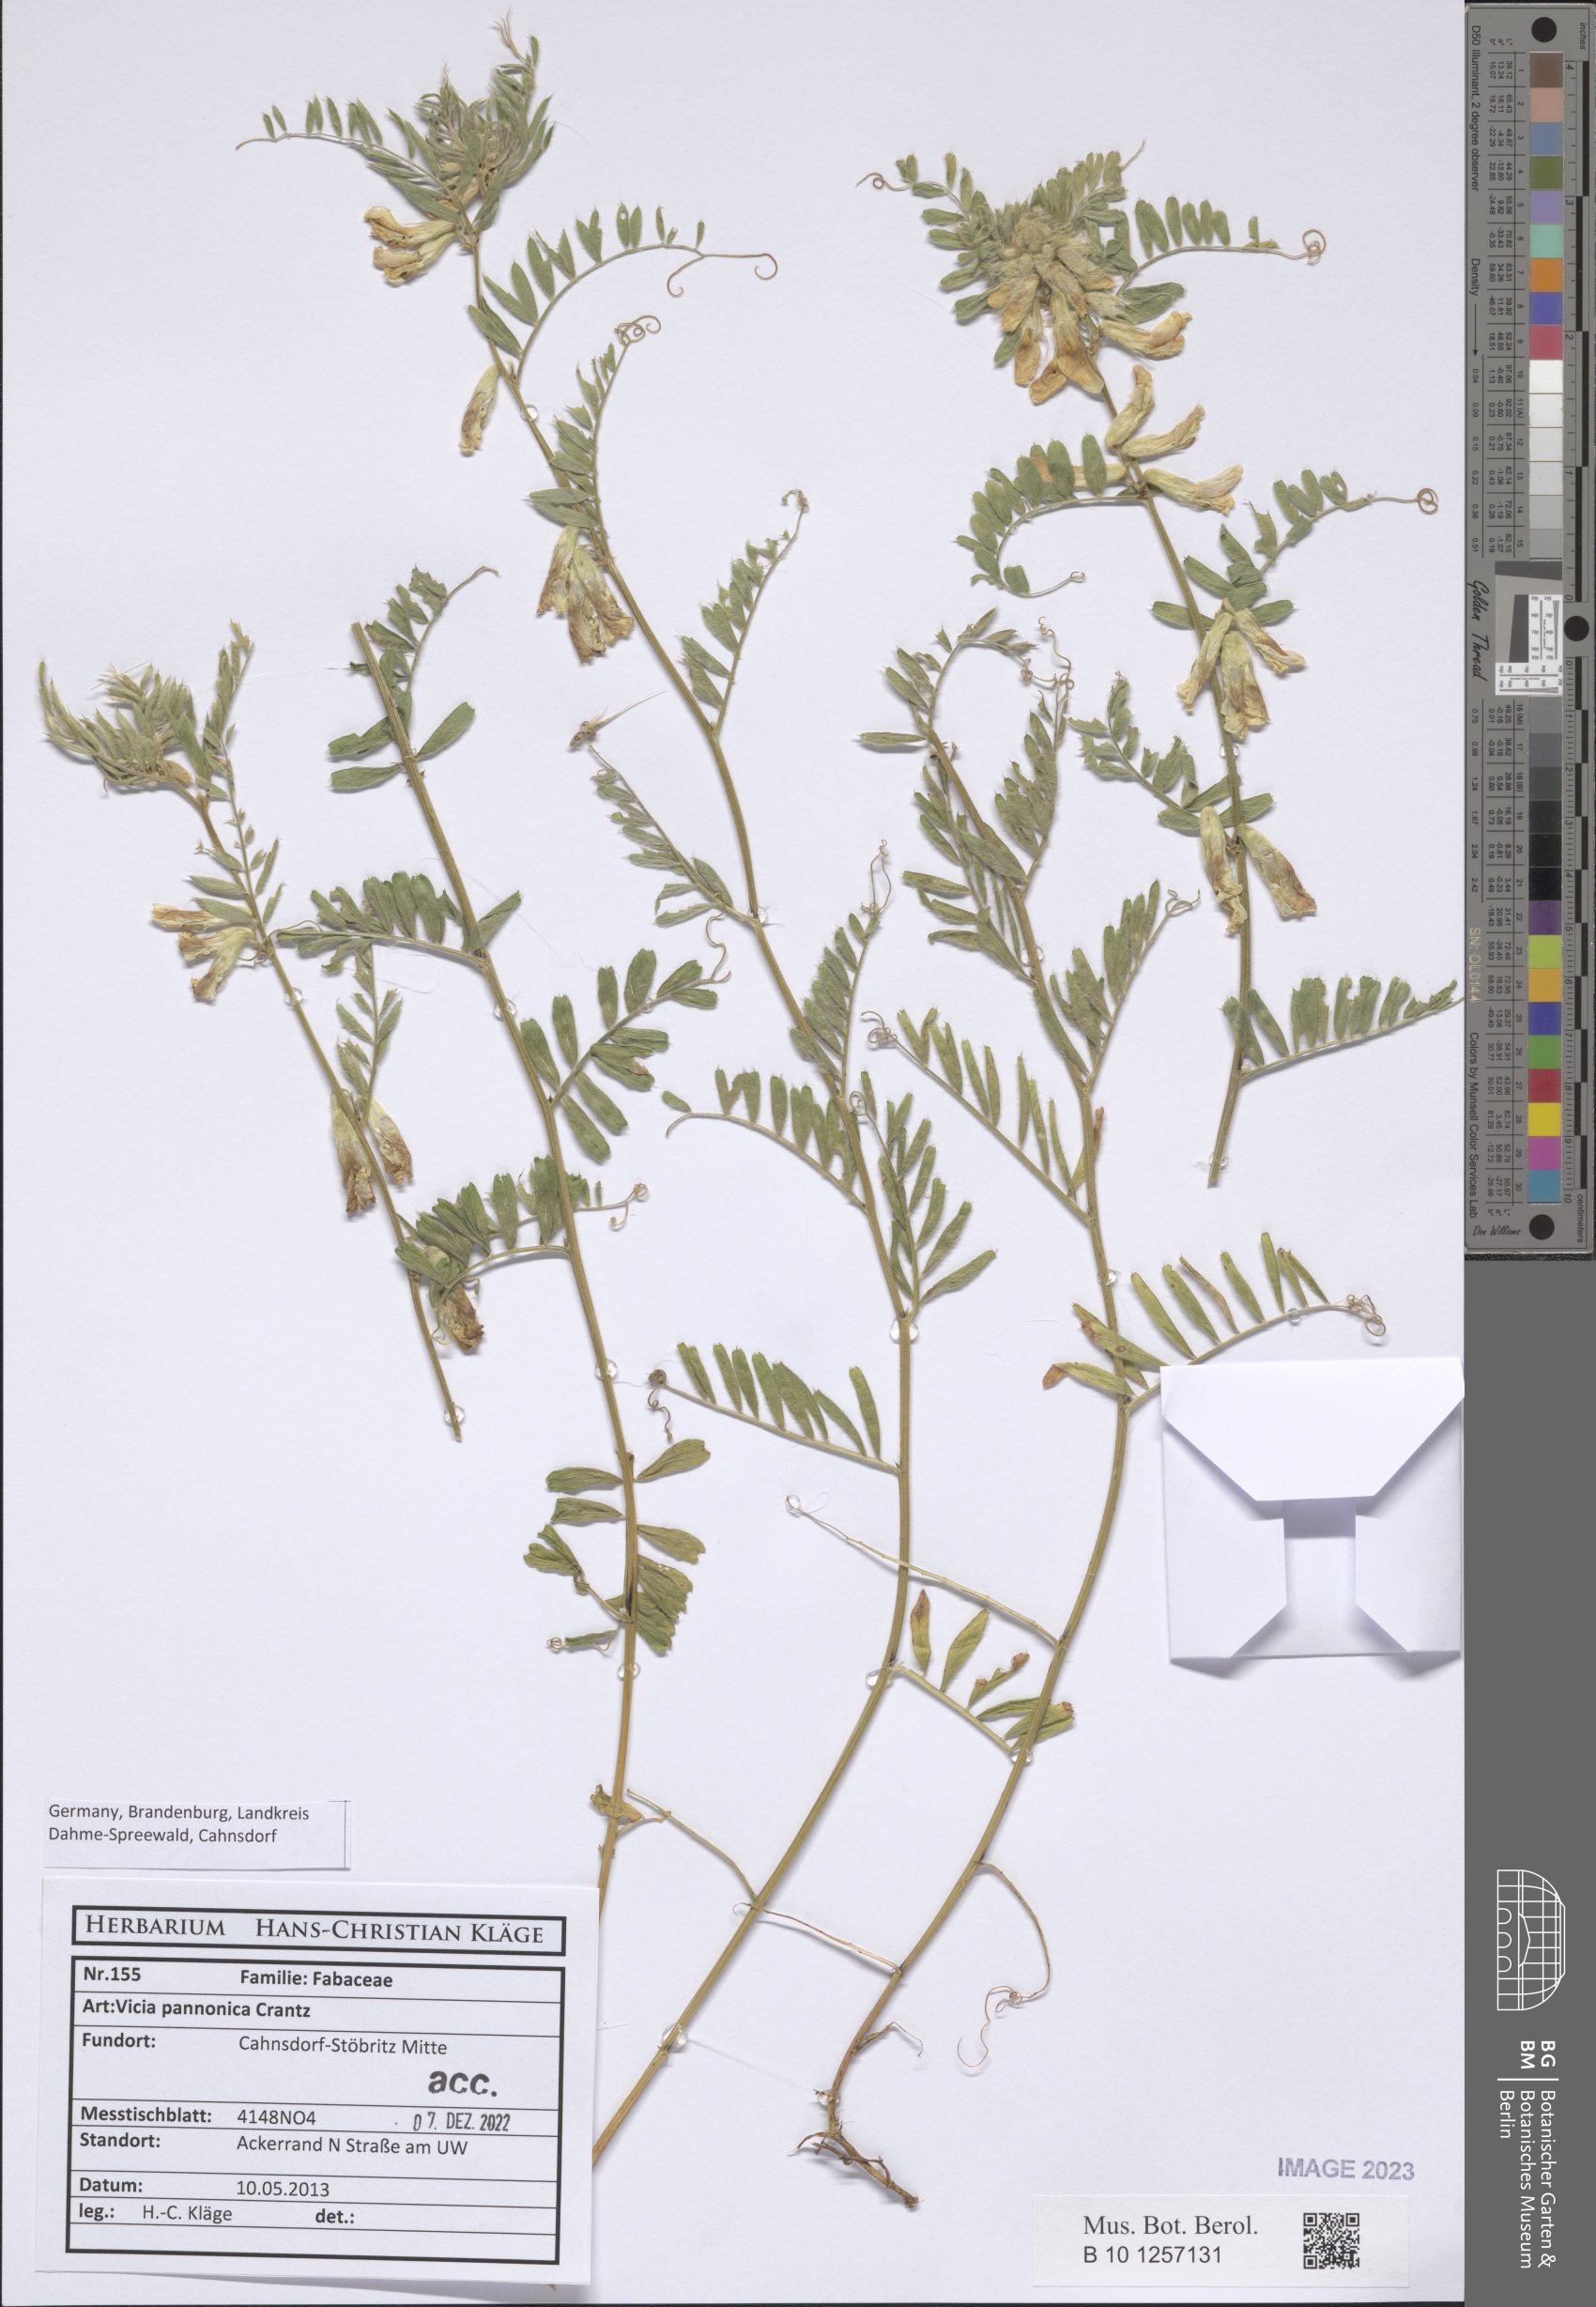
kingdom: Plantae
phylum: Tracheophyta
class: Magnoliopsida
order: Fabales
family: Fabaceae
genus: Vicia
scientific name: Vicia pannonica
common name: Hungarian vetch
